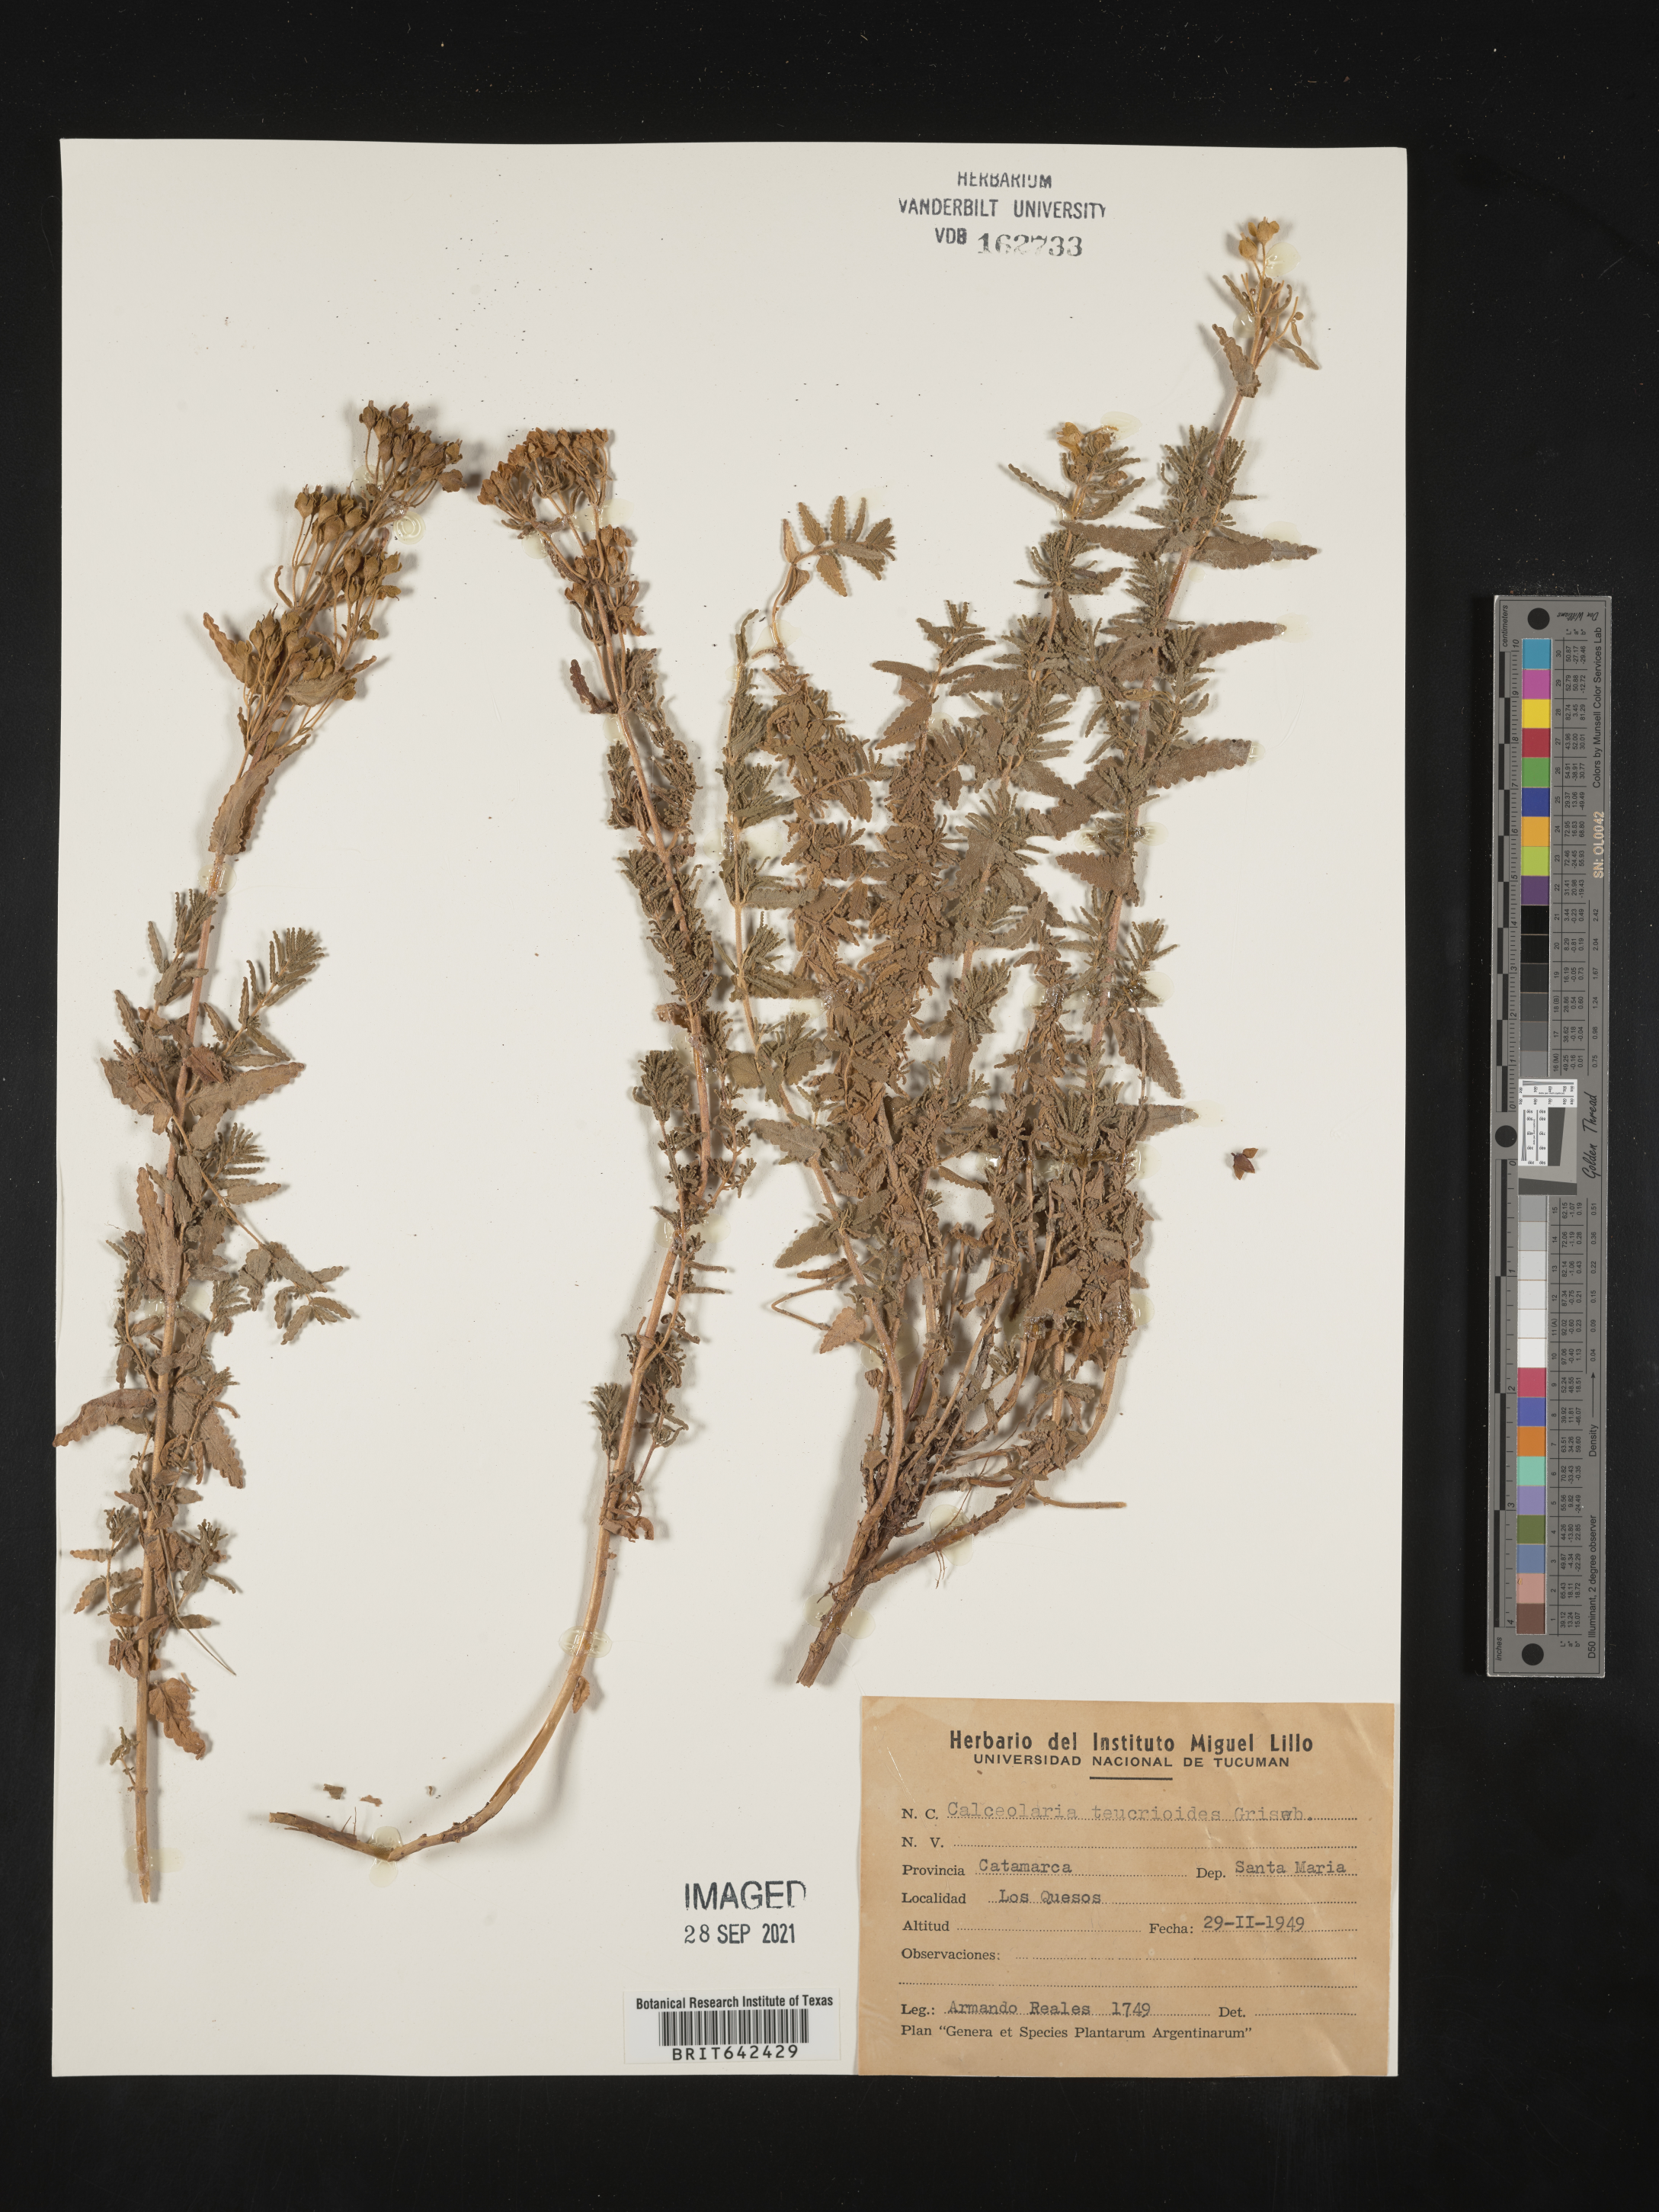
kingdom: Plantae
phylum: Tracheophyta
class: Magnoliopsida
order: Lamiales
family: Calceolariaceae
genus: Calceolaria
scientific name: Calceolaria teucrioides
